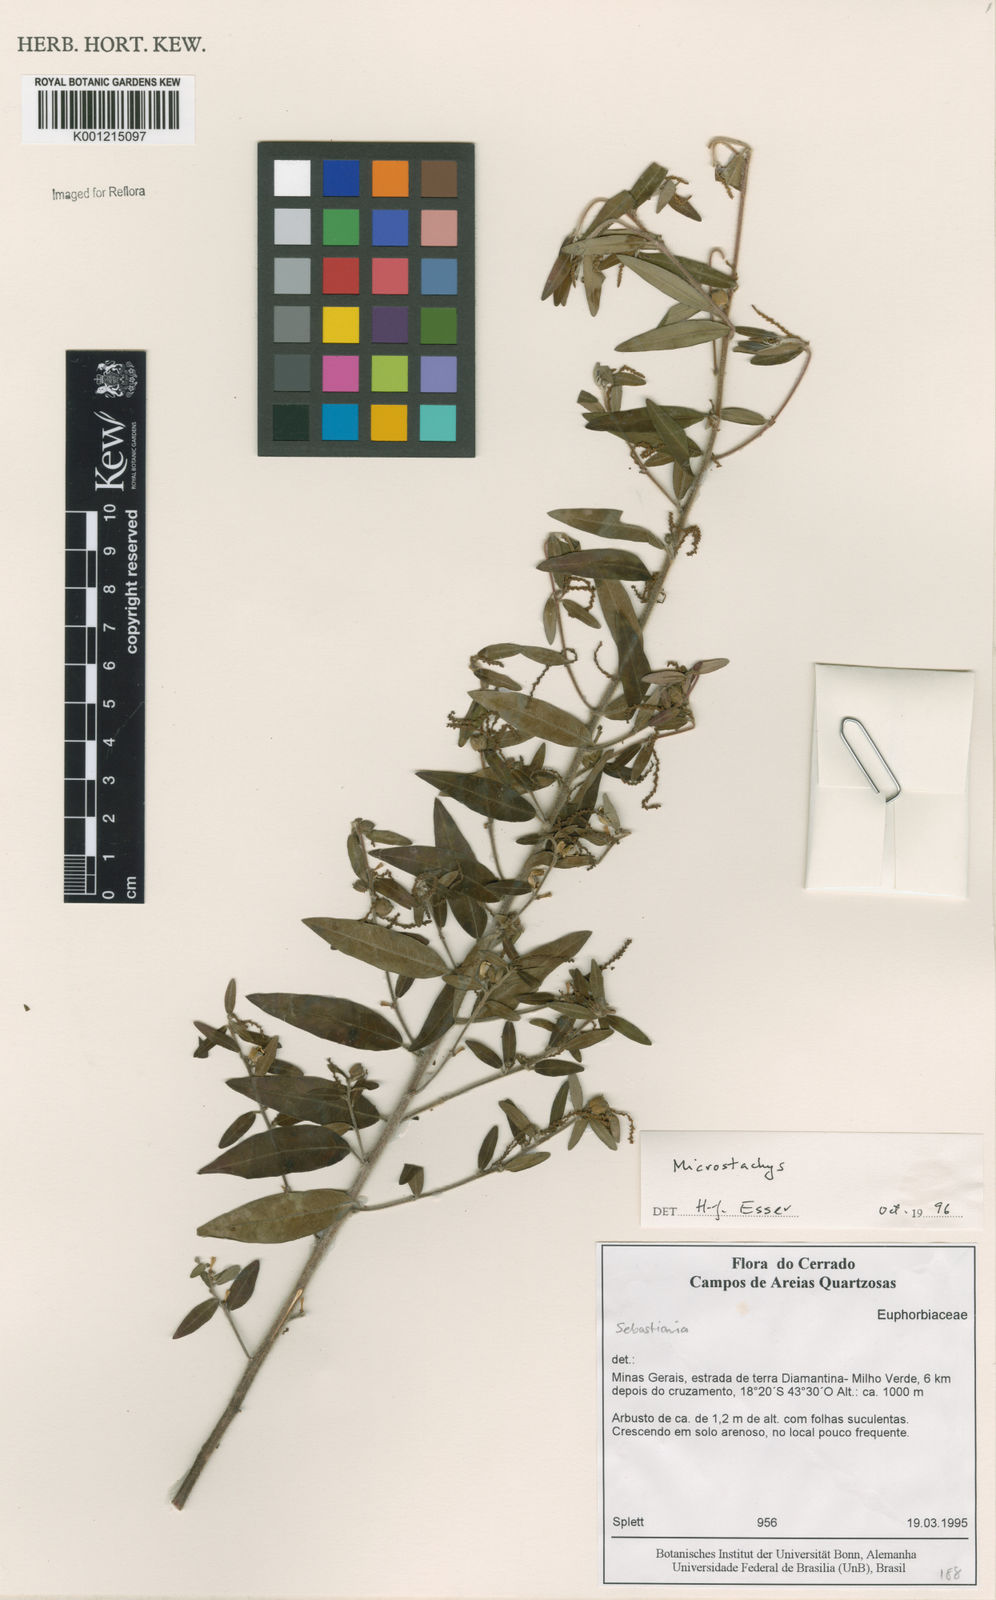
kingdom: Plantae
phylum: Tracheophyta
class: Magnoliopsida
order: Malpighiales
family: Euphorbiaceae
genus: Sebastiania
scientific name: Sebastiania
